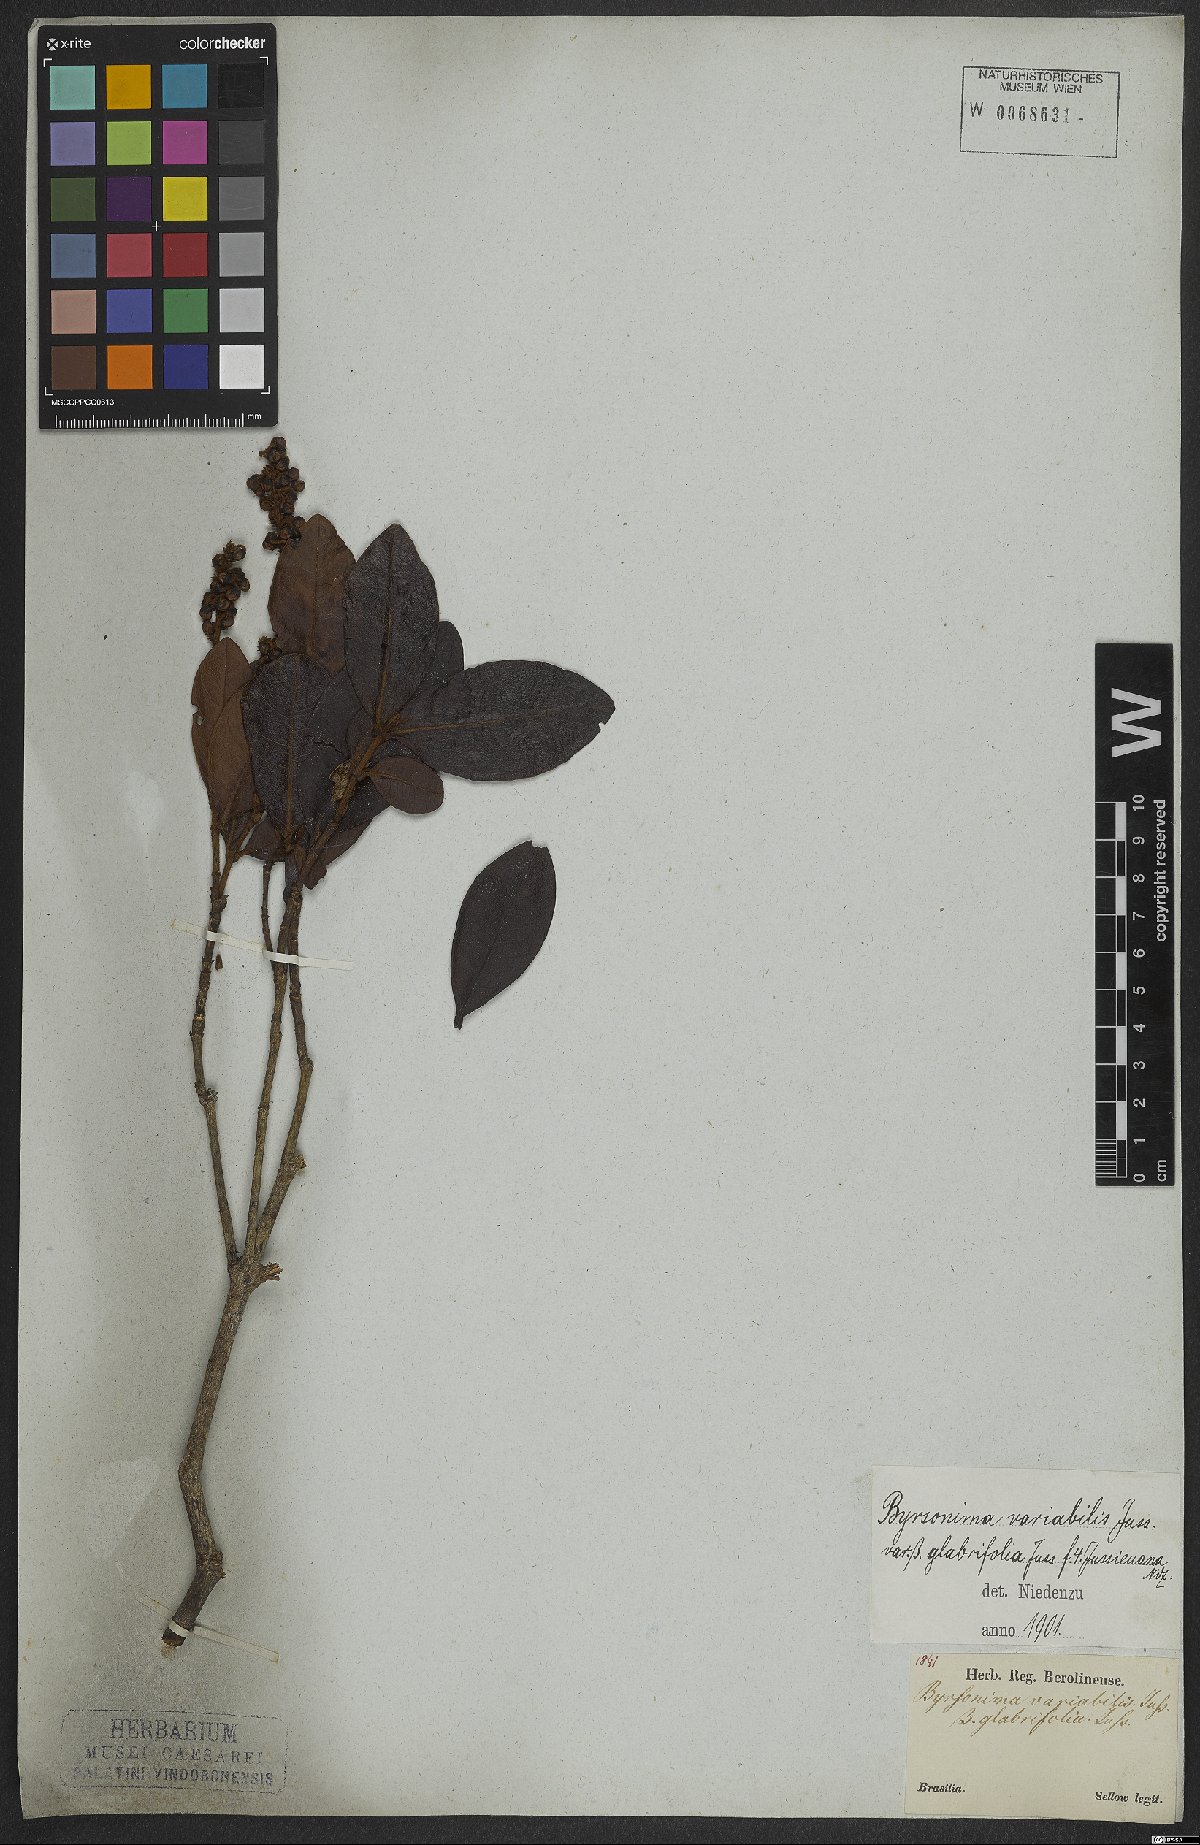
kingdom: Plantae
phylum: Tracheophyta
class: Magnoliopsida
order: Malpighiales
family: Malpighiaceae
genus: Byrsonima
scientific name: Byrsonima variabilis
